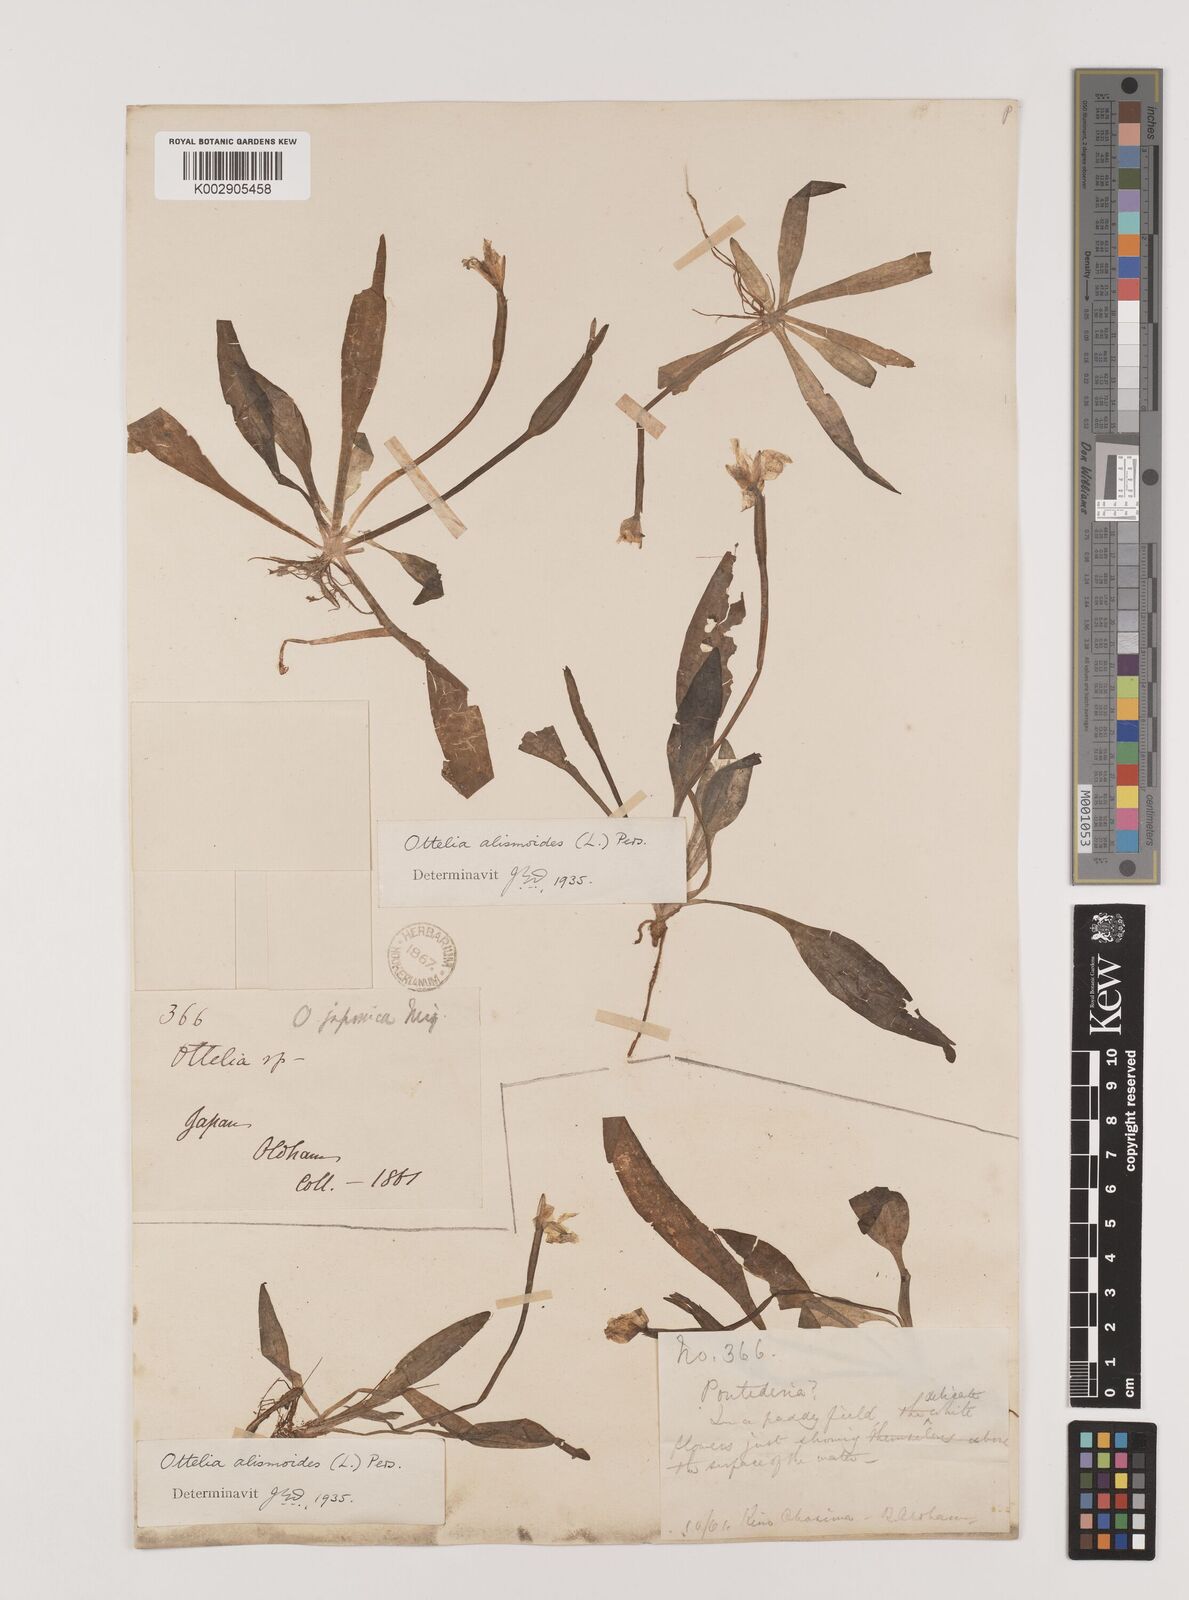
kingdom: Plantae
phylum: Tracheophyta
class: Liliopsida
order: Alismatales
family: Hydrocharitaceae
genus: Ottelia
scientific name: Ottelia alismoides
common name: Duck-lettuce
